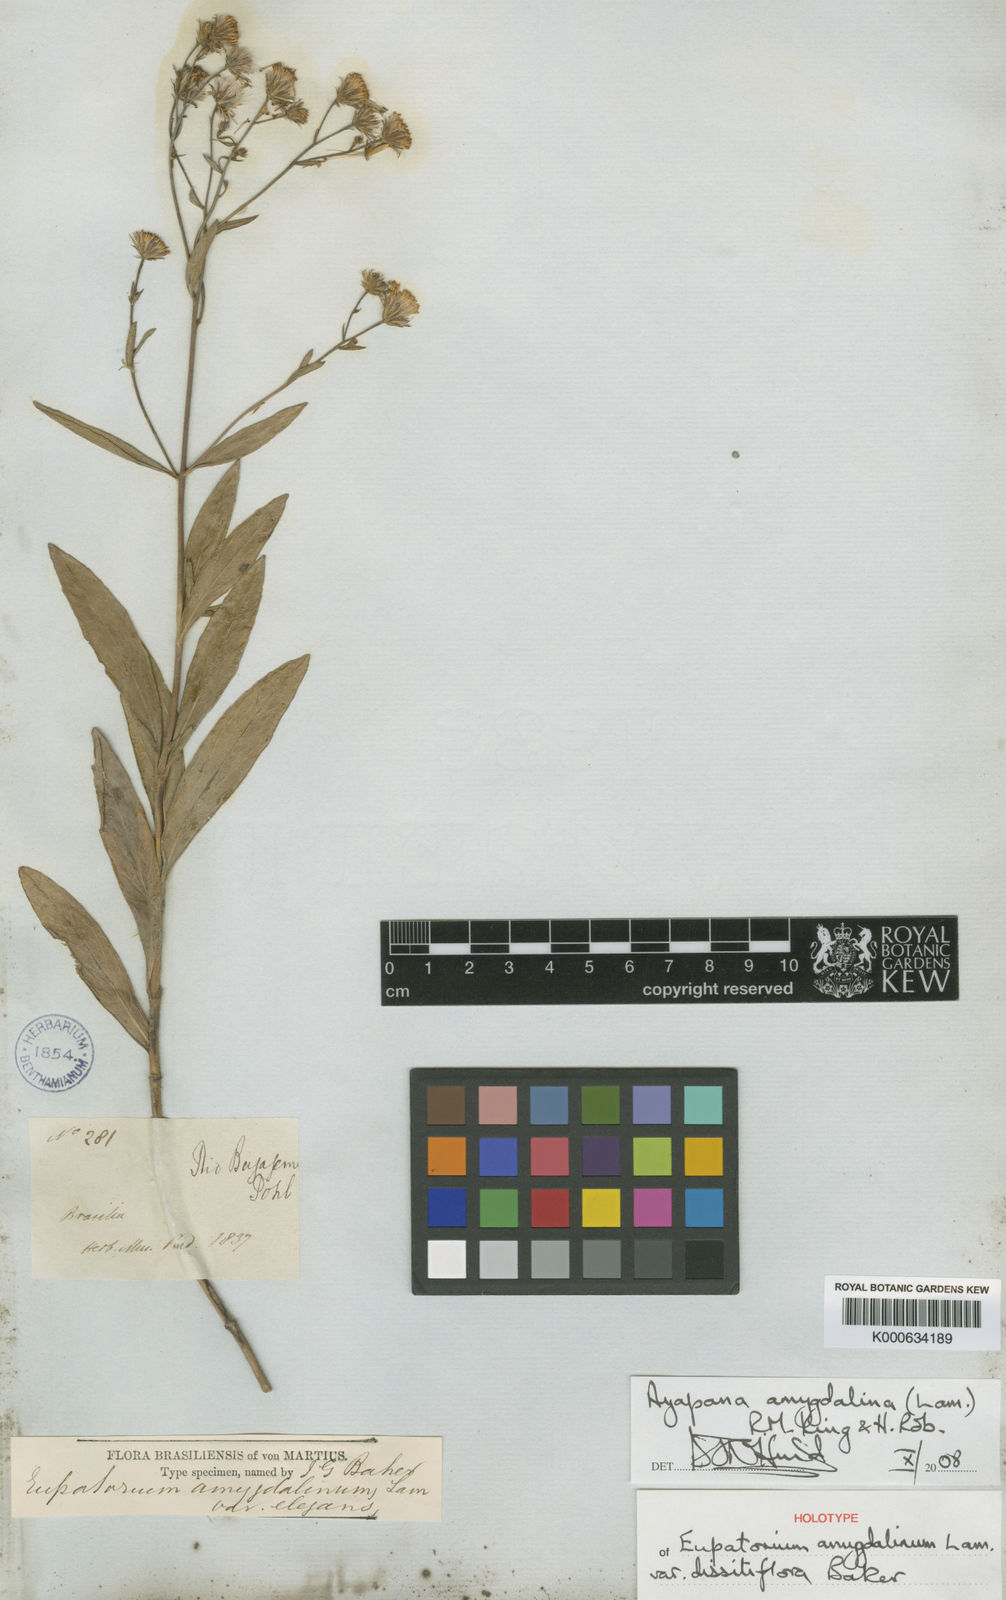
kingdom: Plantae
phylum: Tracheophyta
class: Magnoliopsida
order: Asterales
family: Asteraceae
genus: Ayapana
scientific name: Ayapana amygdalina
